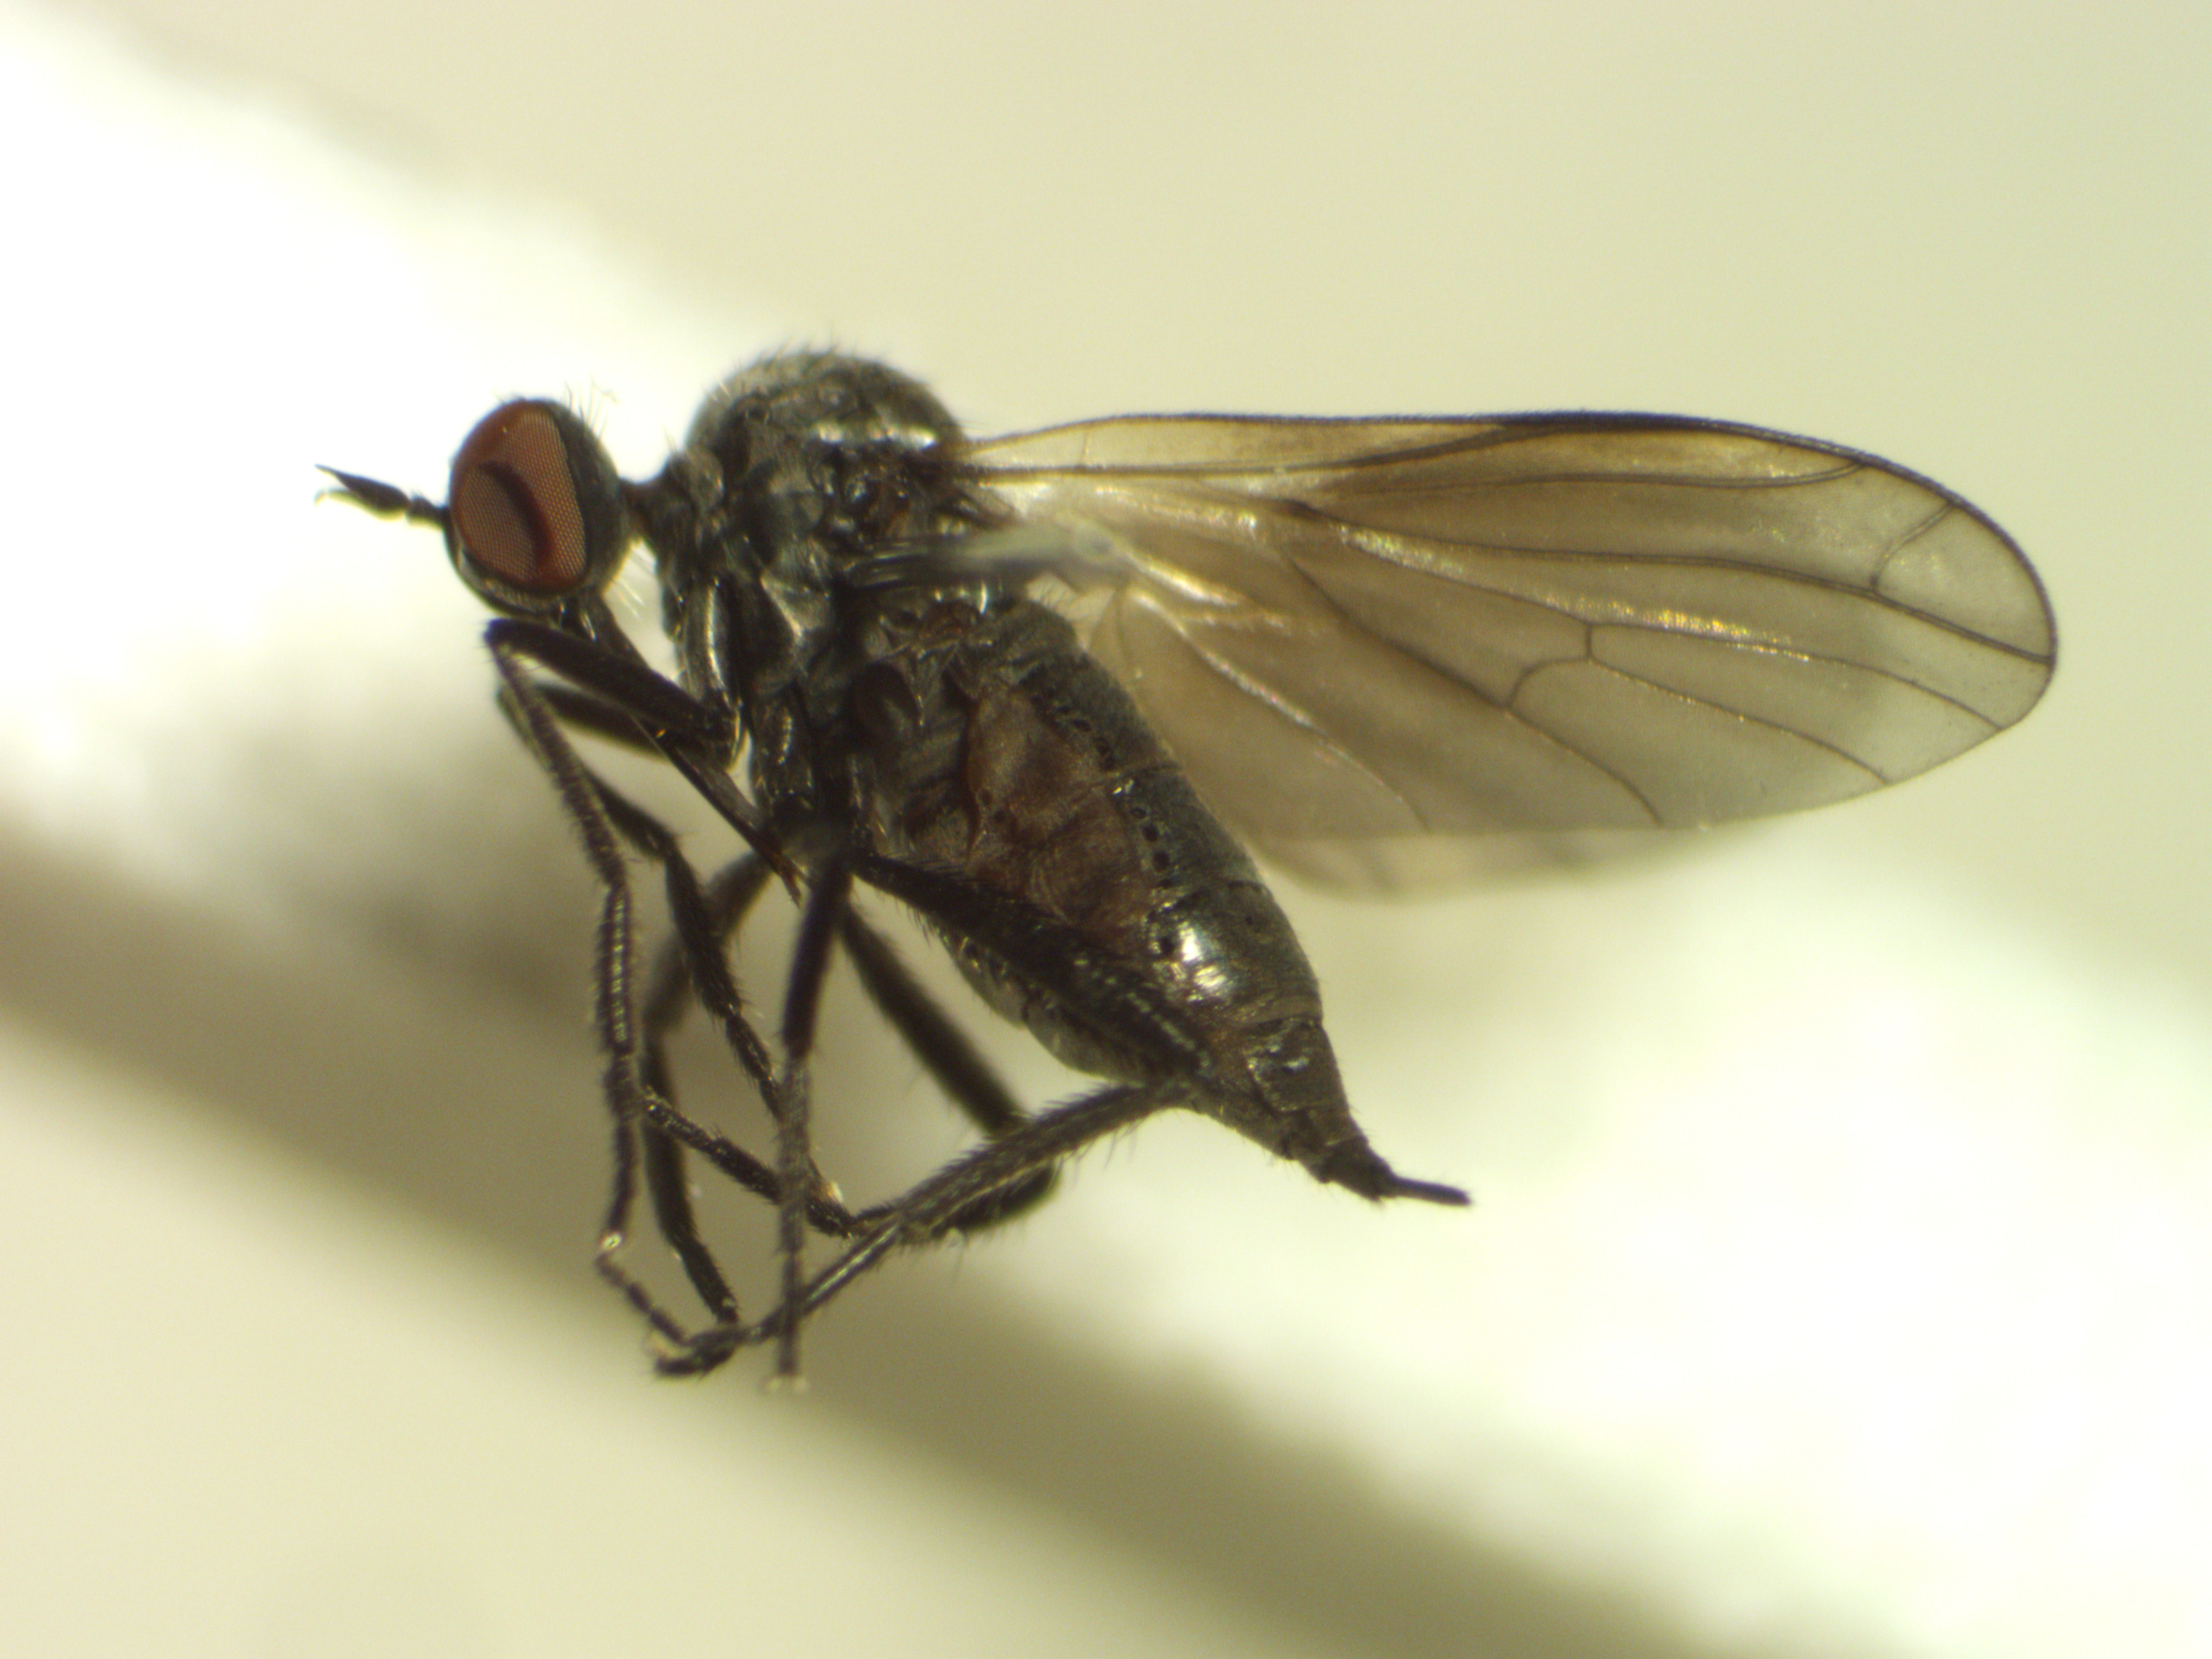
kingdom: Animalia
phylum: Arthropoda
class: Insecta
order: Diptera
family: Empididae
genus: Empis
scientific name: Empis chioptera
